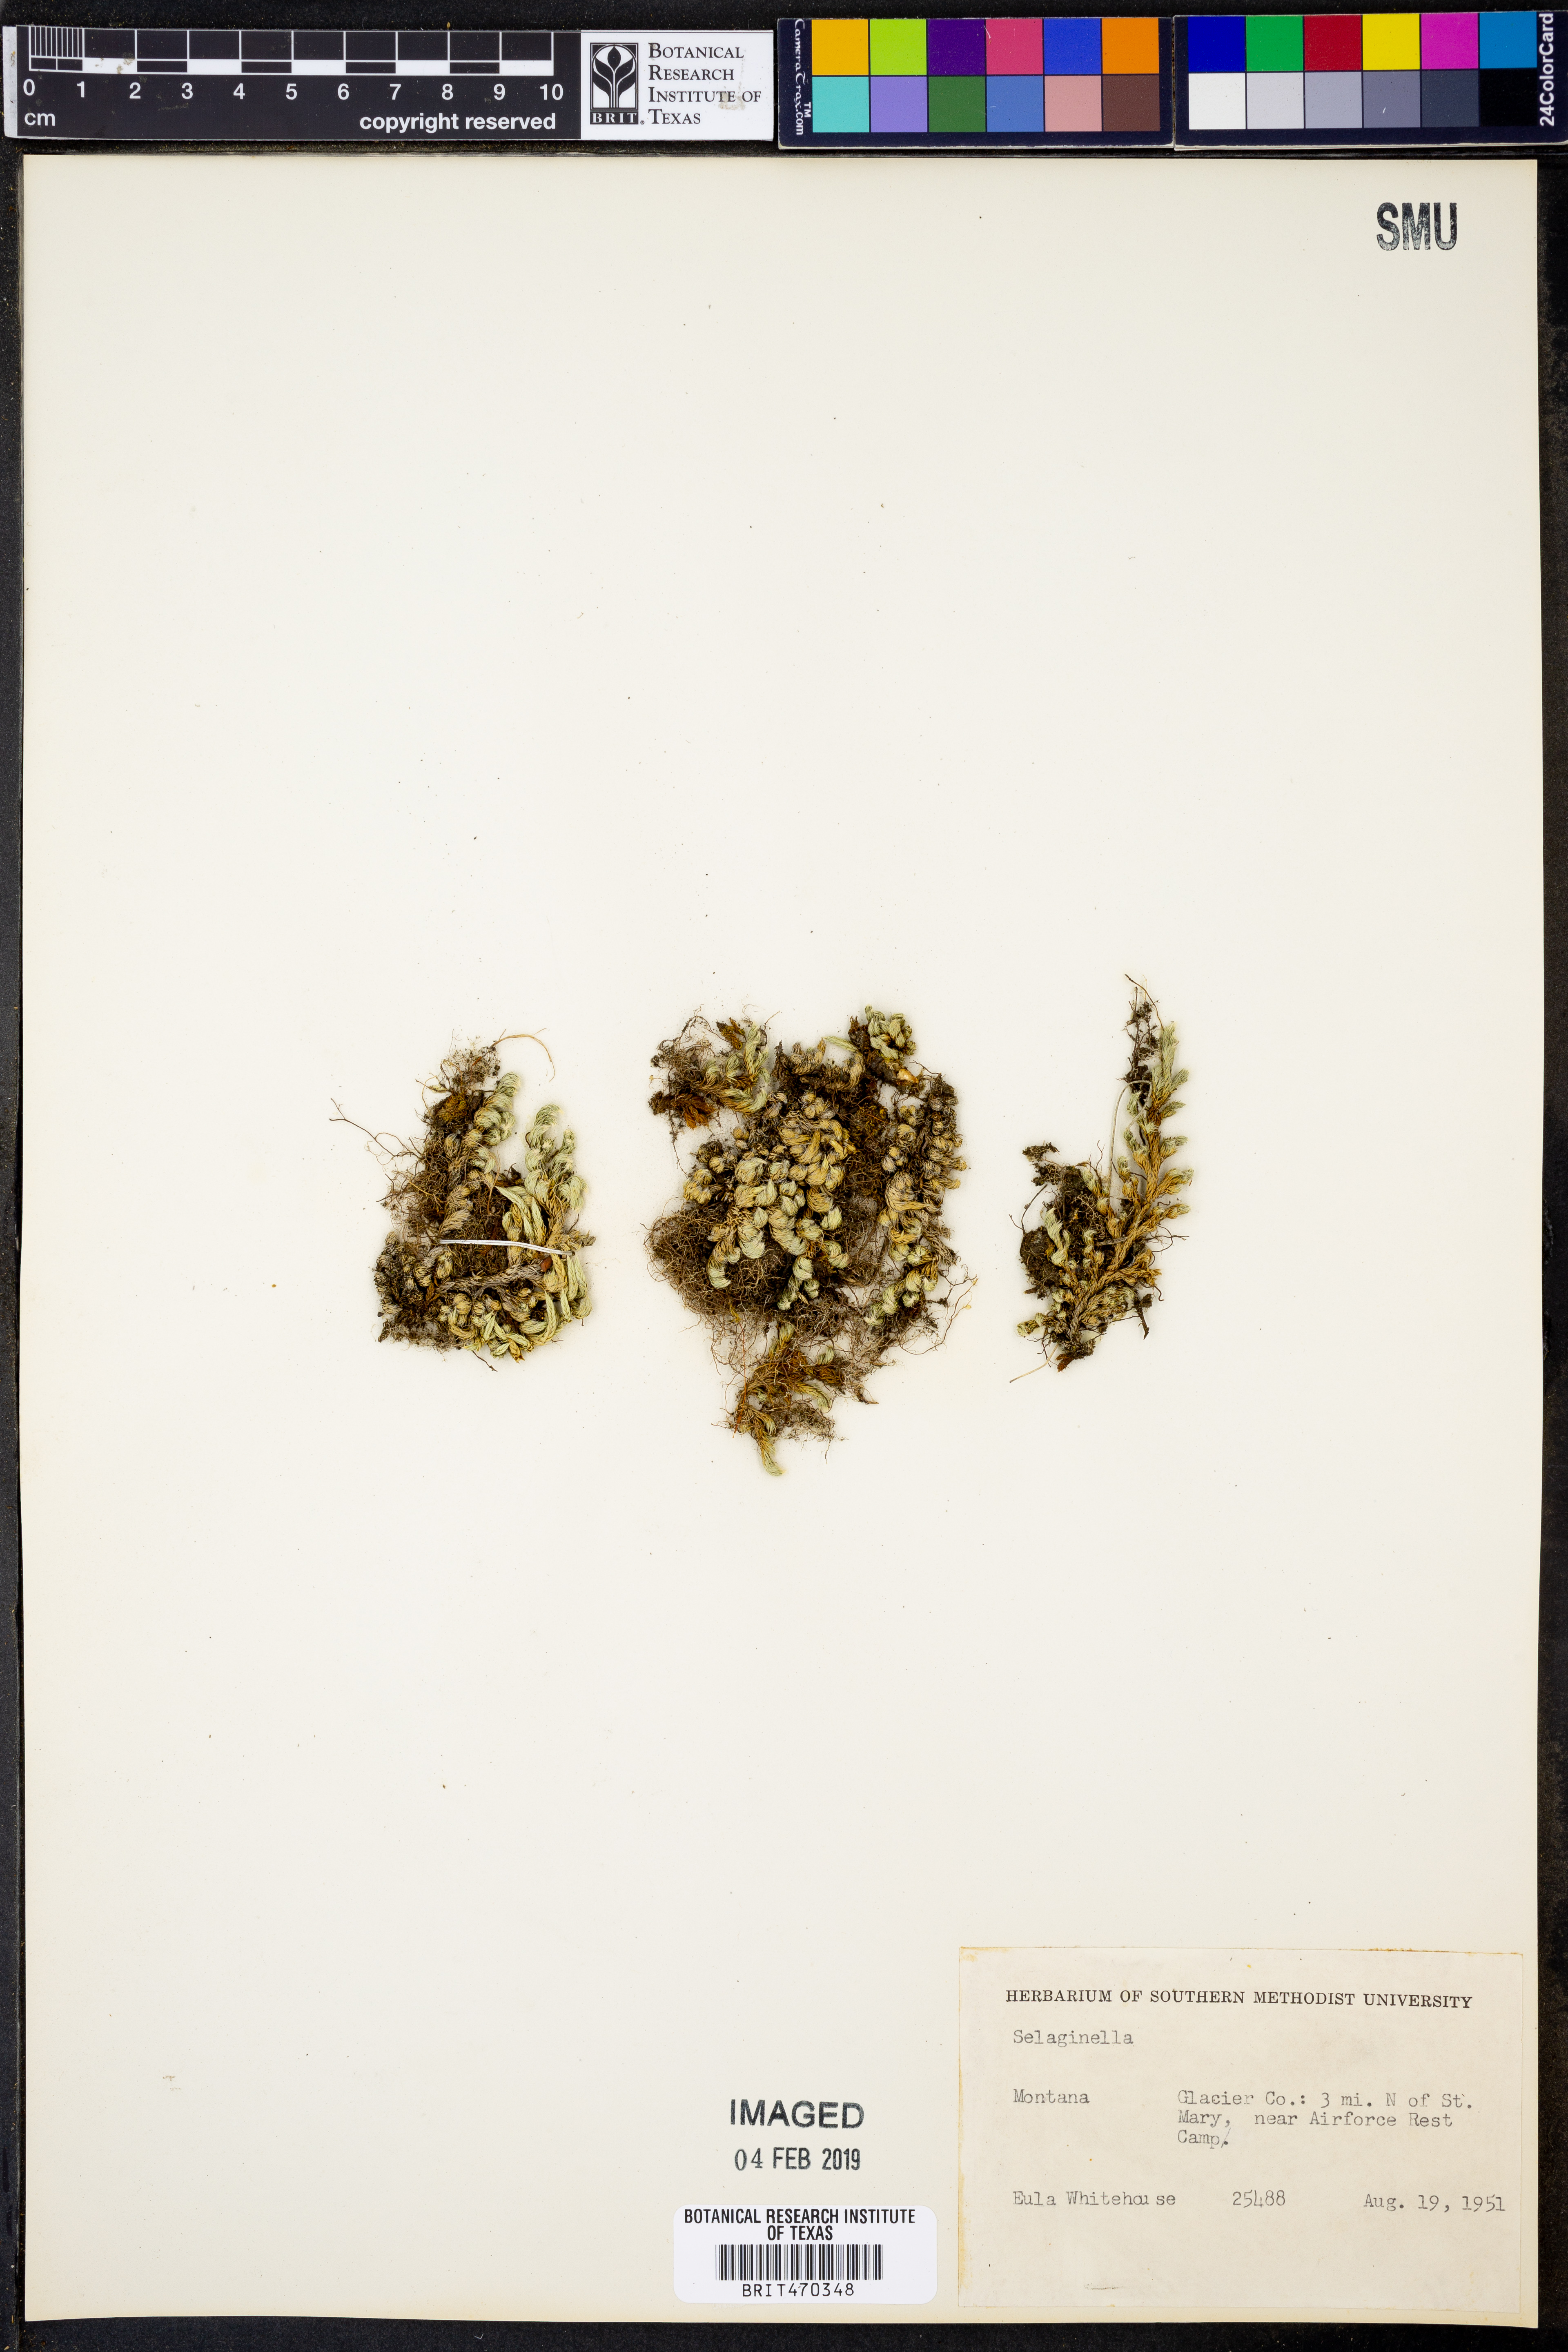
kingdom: Plantae
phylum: Tracheophyta
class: Lycopodiopsida
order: Selaginellales
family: Selaginellaceae
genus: Selaginella
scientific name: Selaginella
